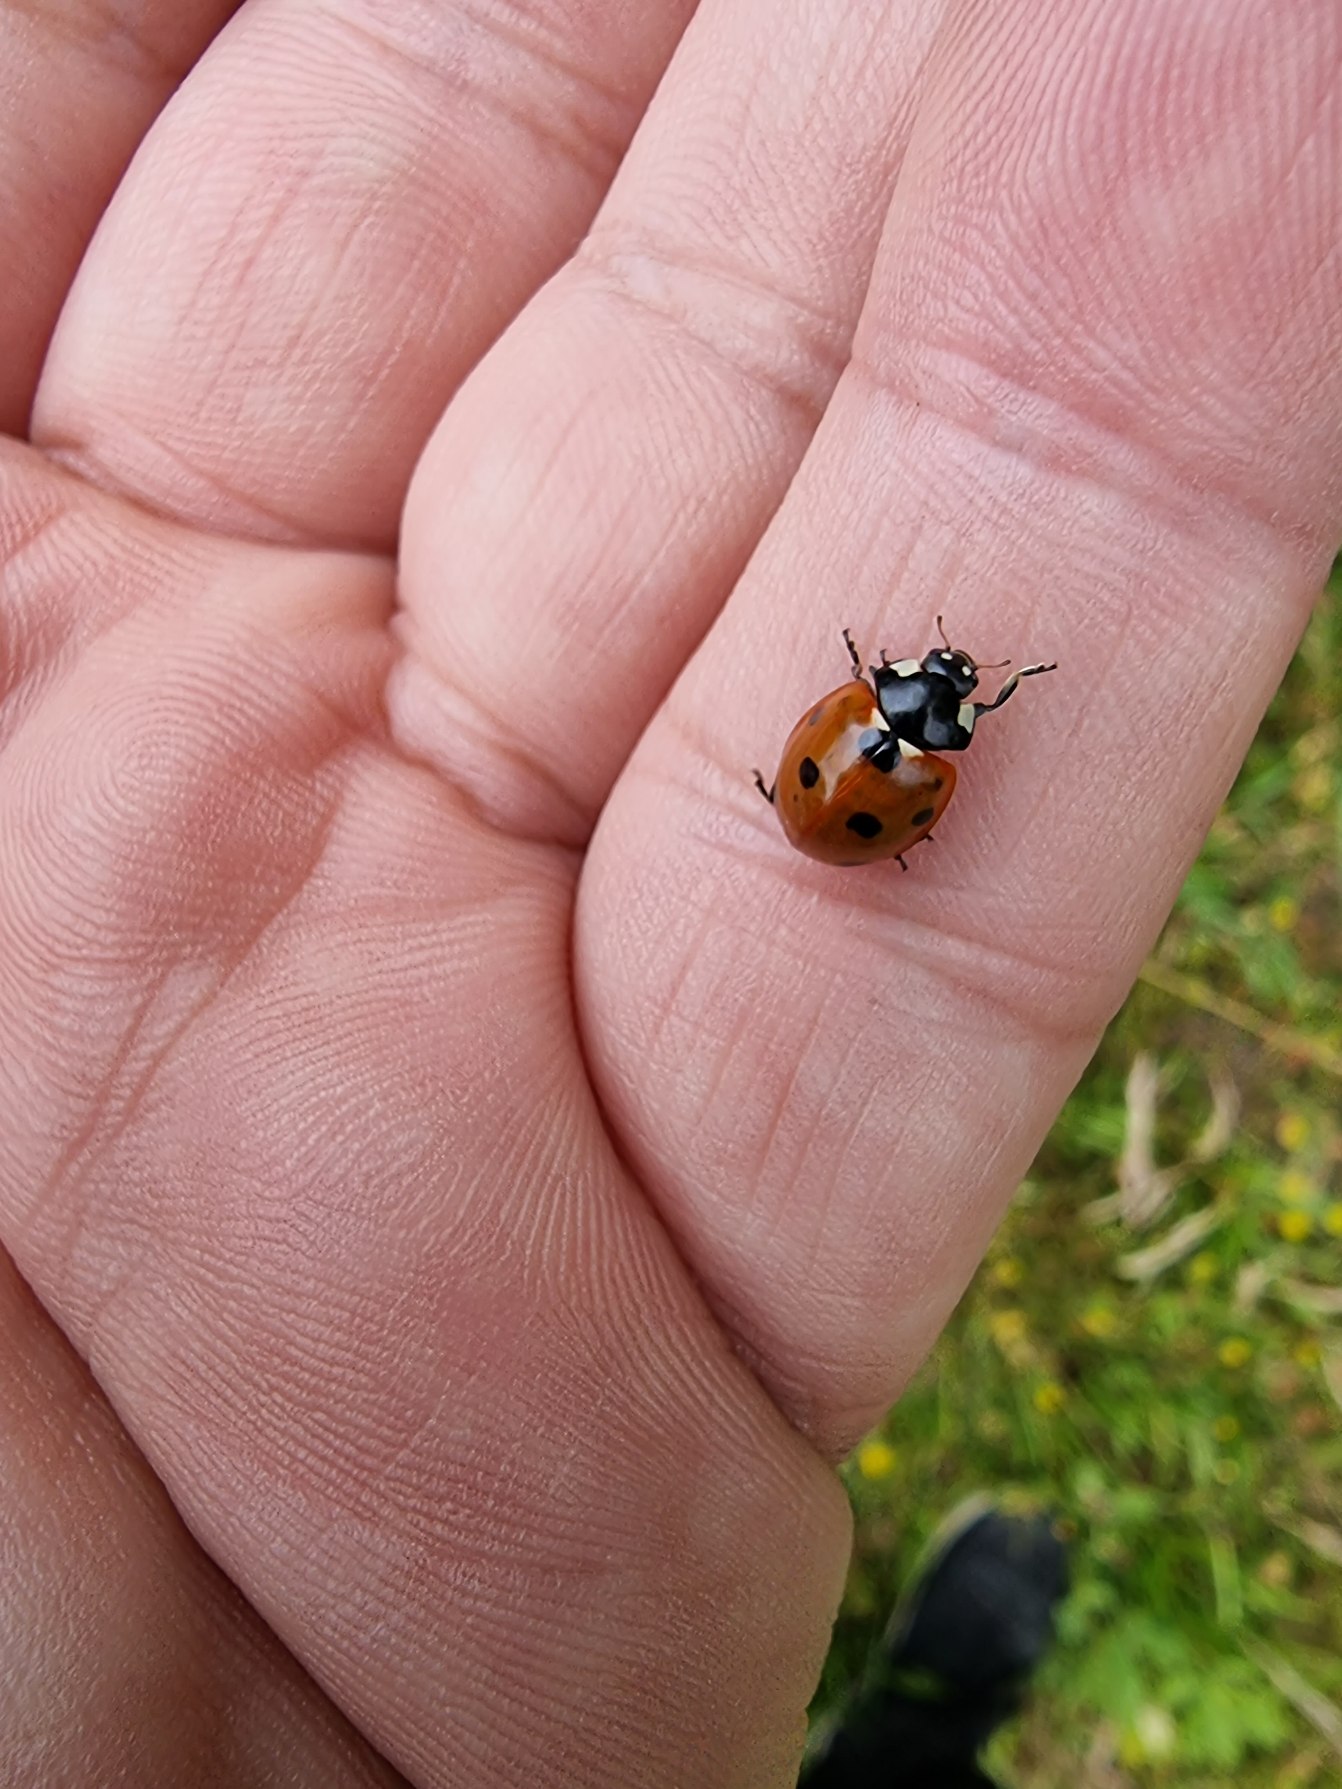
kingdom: Animalia
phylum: Arthropoda
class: Insecta
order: Coleoptera
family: Coccinellidae
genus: Coccinella
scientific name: Coccinella septempunctata
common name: Syvplettet mariehøne
